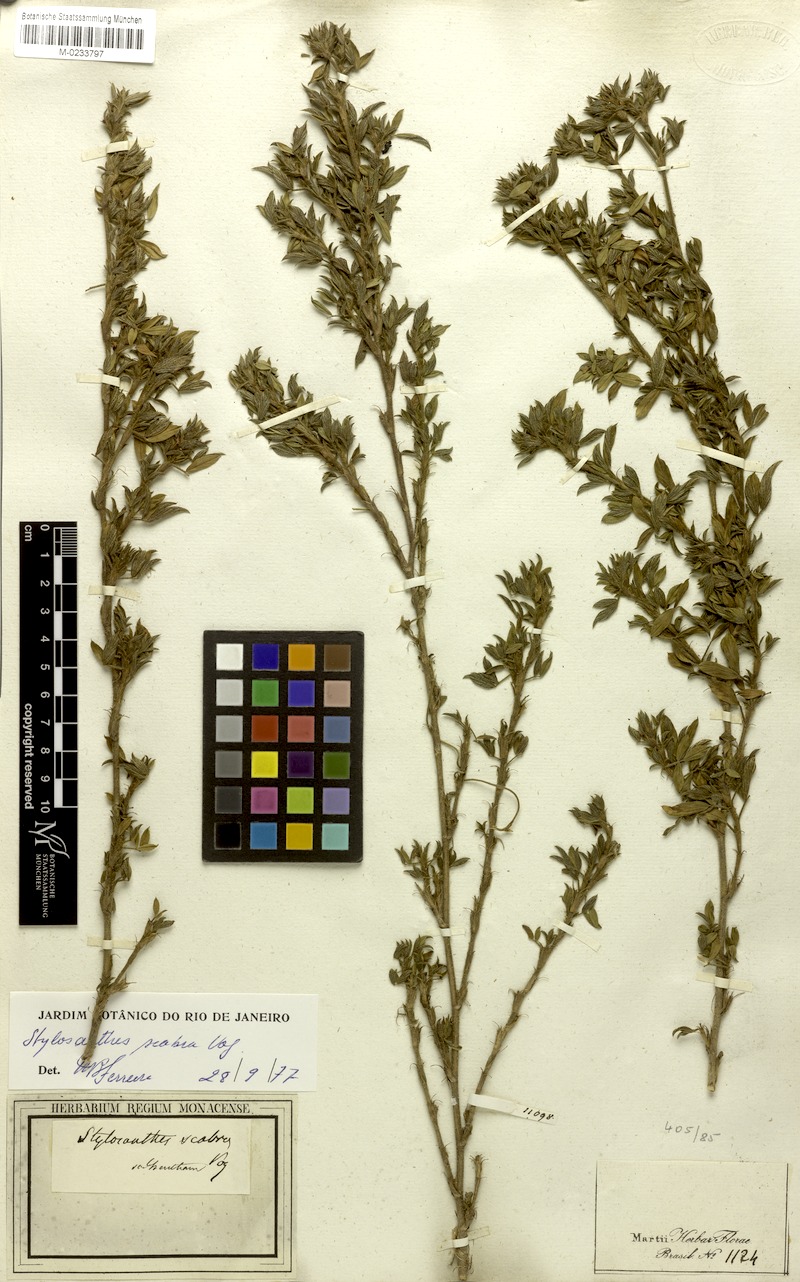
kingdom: Plantae
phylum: Tracheophyta
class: Magnoliopsida
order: Fabales
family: Fabaceae
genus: Stylosanthes
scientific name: Stylosanthes scabra
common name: Pencilflower
